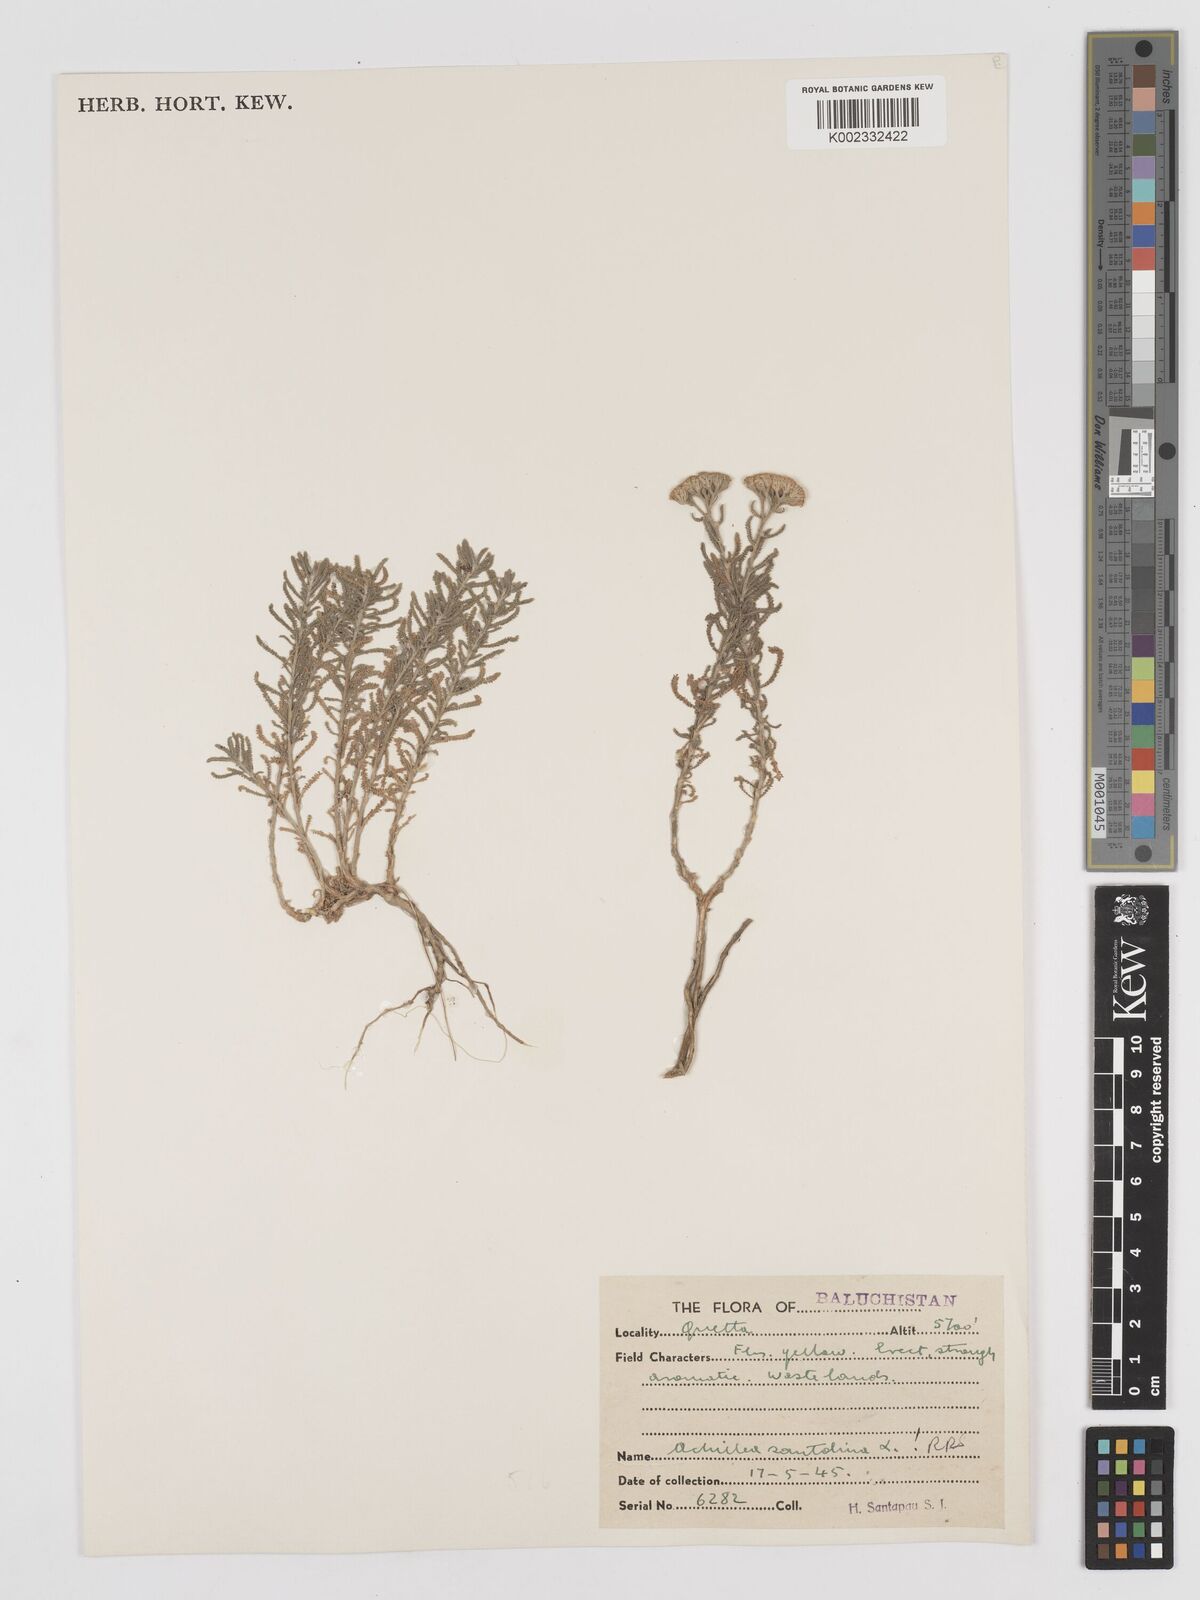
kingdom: Plantae
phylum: Tracheophyta
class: Magnoliopsida
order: Asterales
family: Asteraceae
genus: Achillea
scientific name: Achillea tenuifolia
